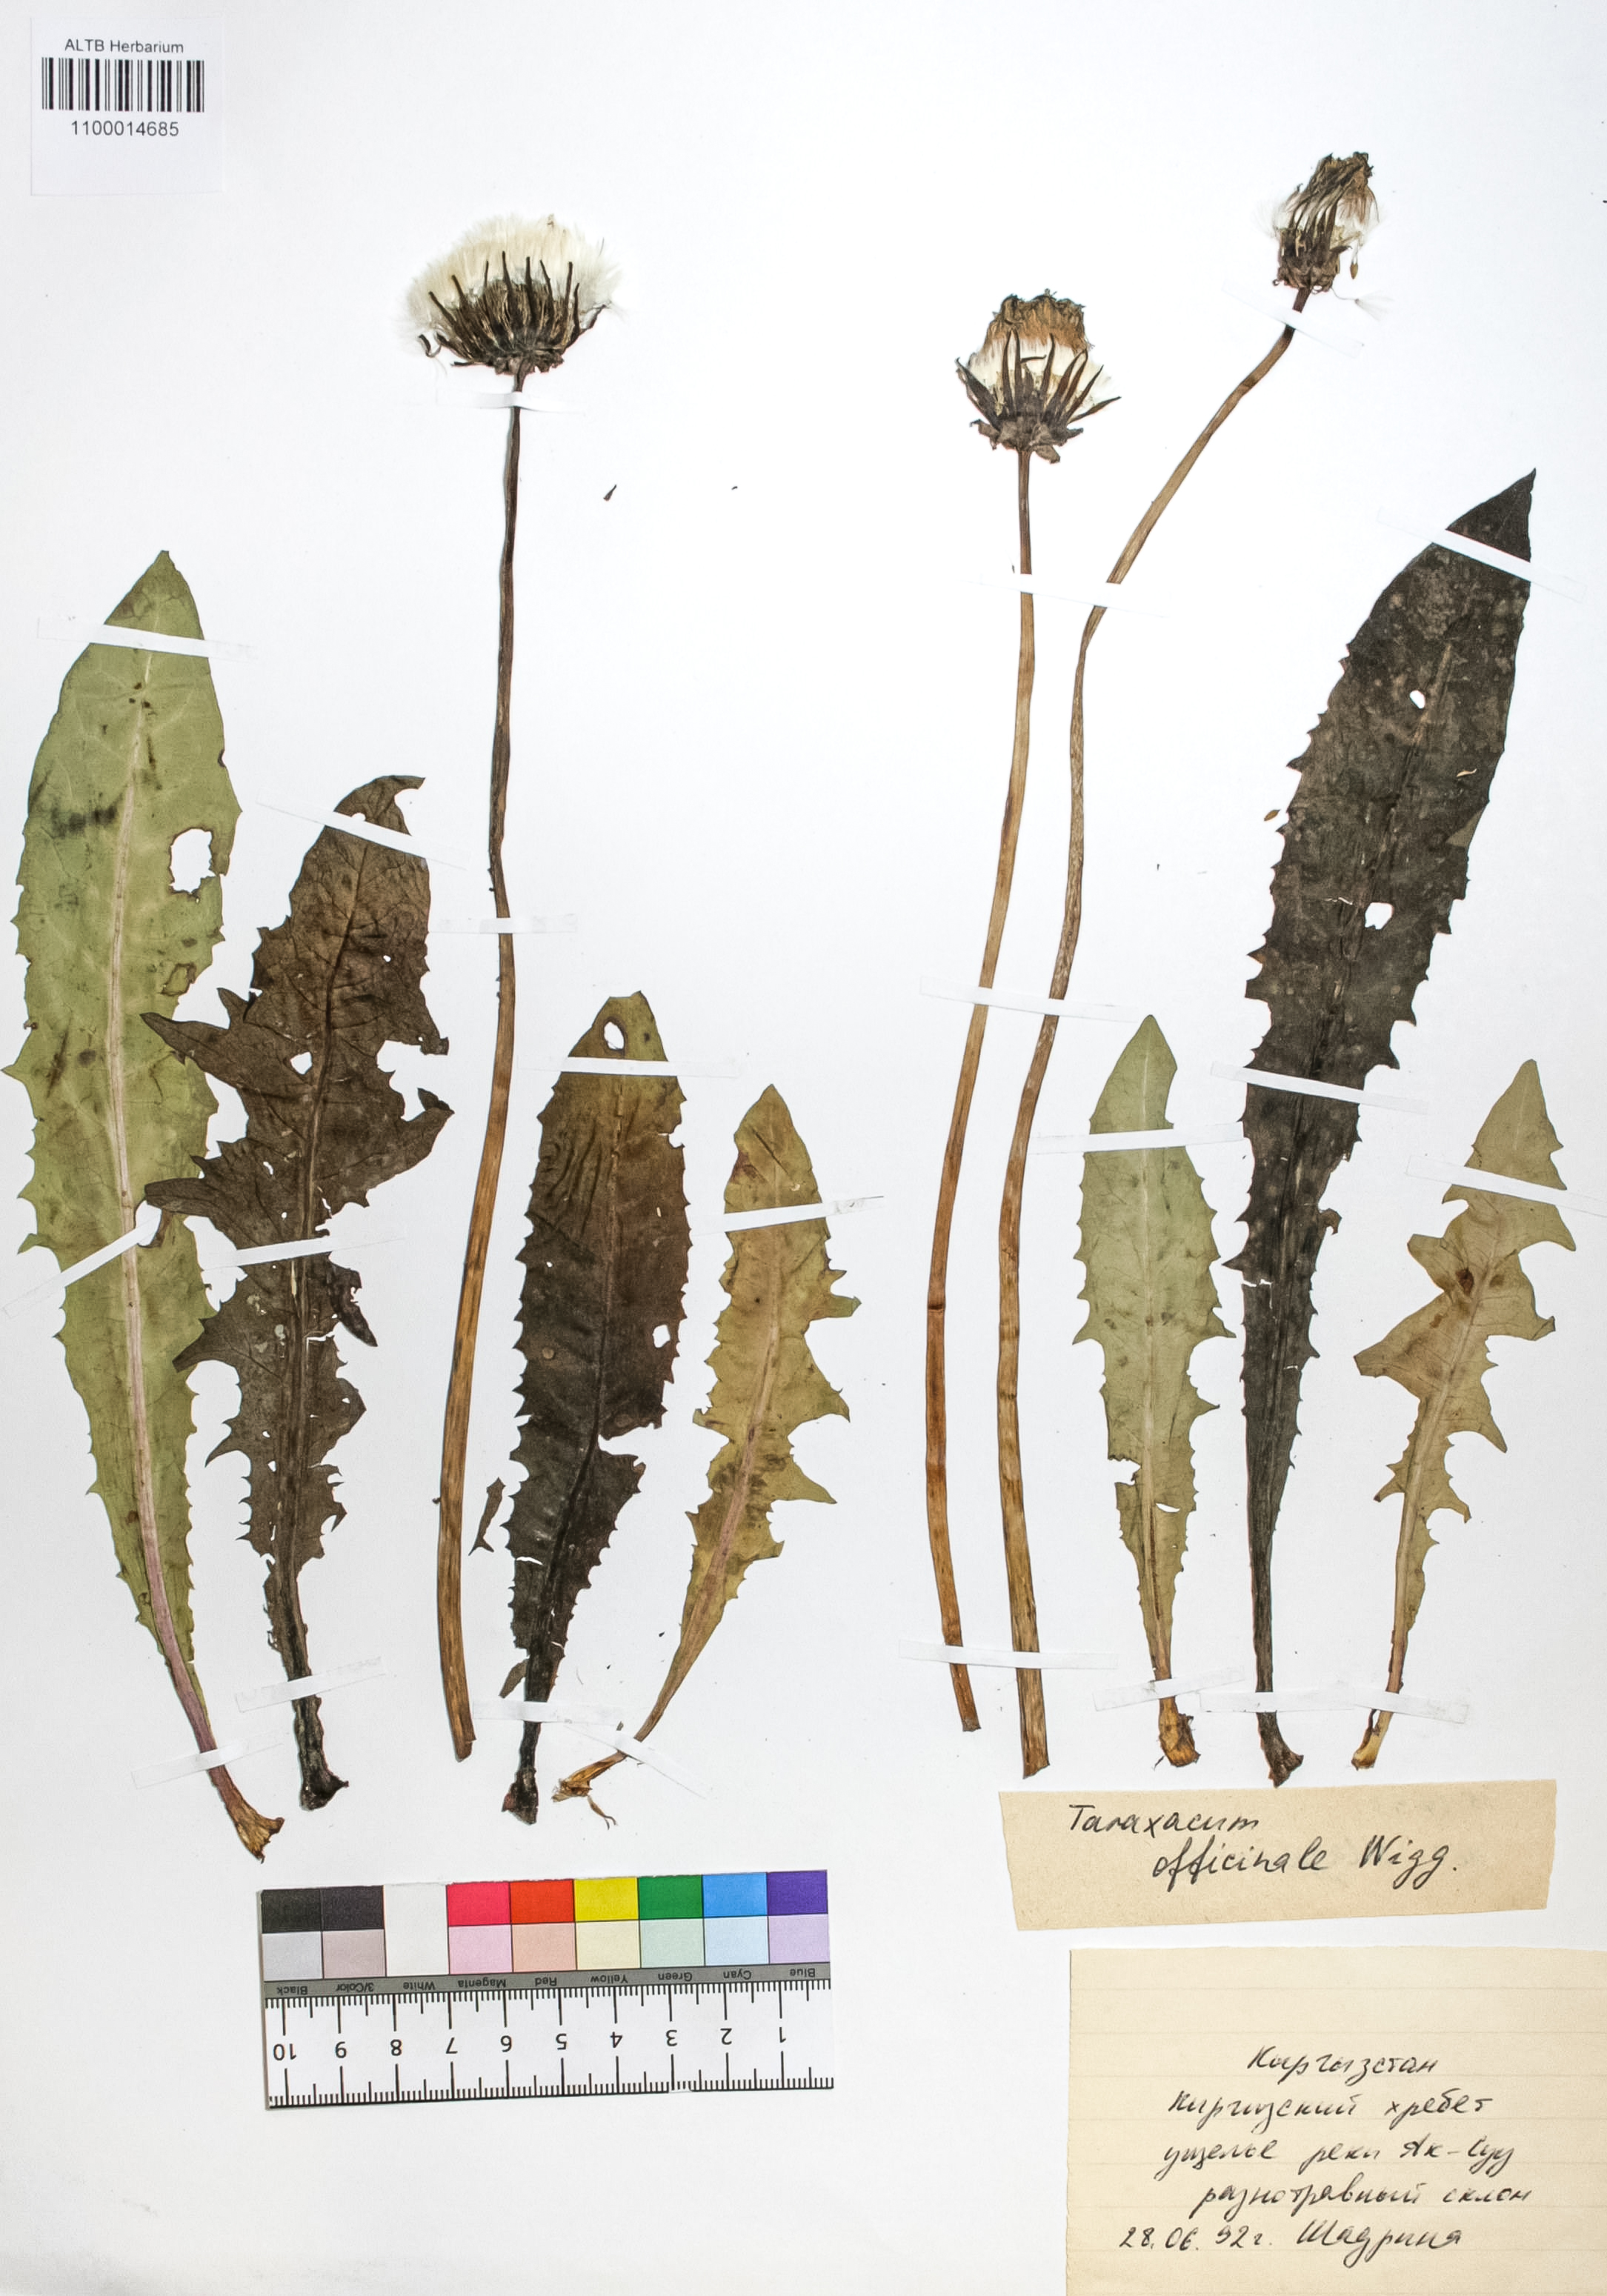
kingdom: Plantae
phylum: Tracheophyta
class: Magnoliopsida
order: Asterales
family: Asteraceae
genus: Taraxacum
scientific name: Taraxacum officinale
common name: Common dandelion
